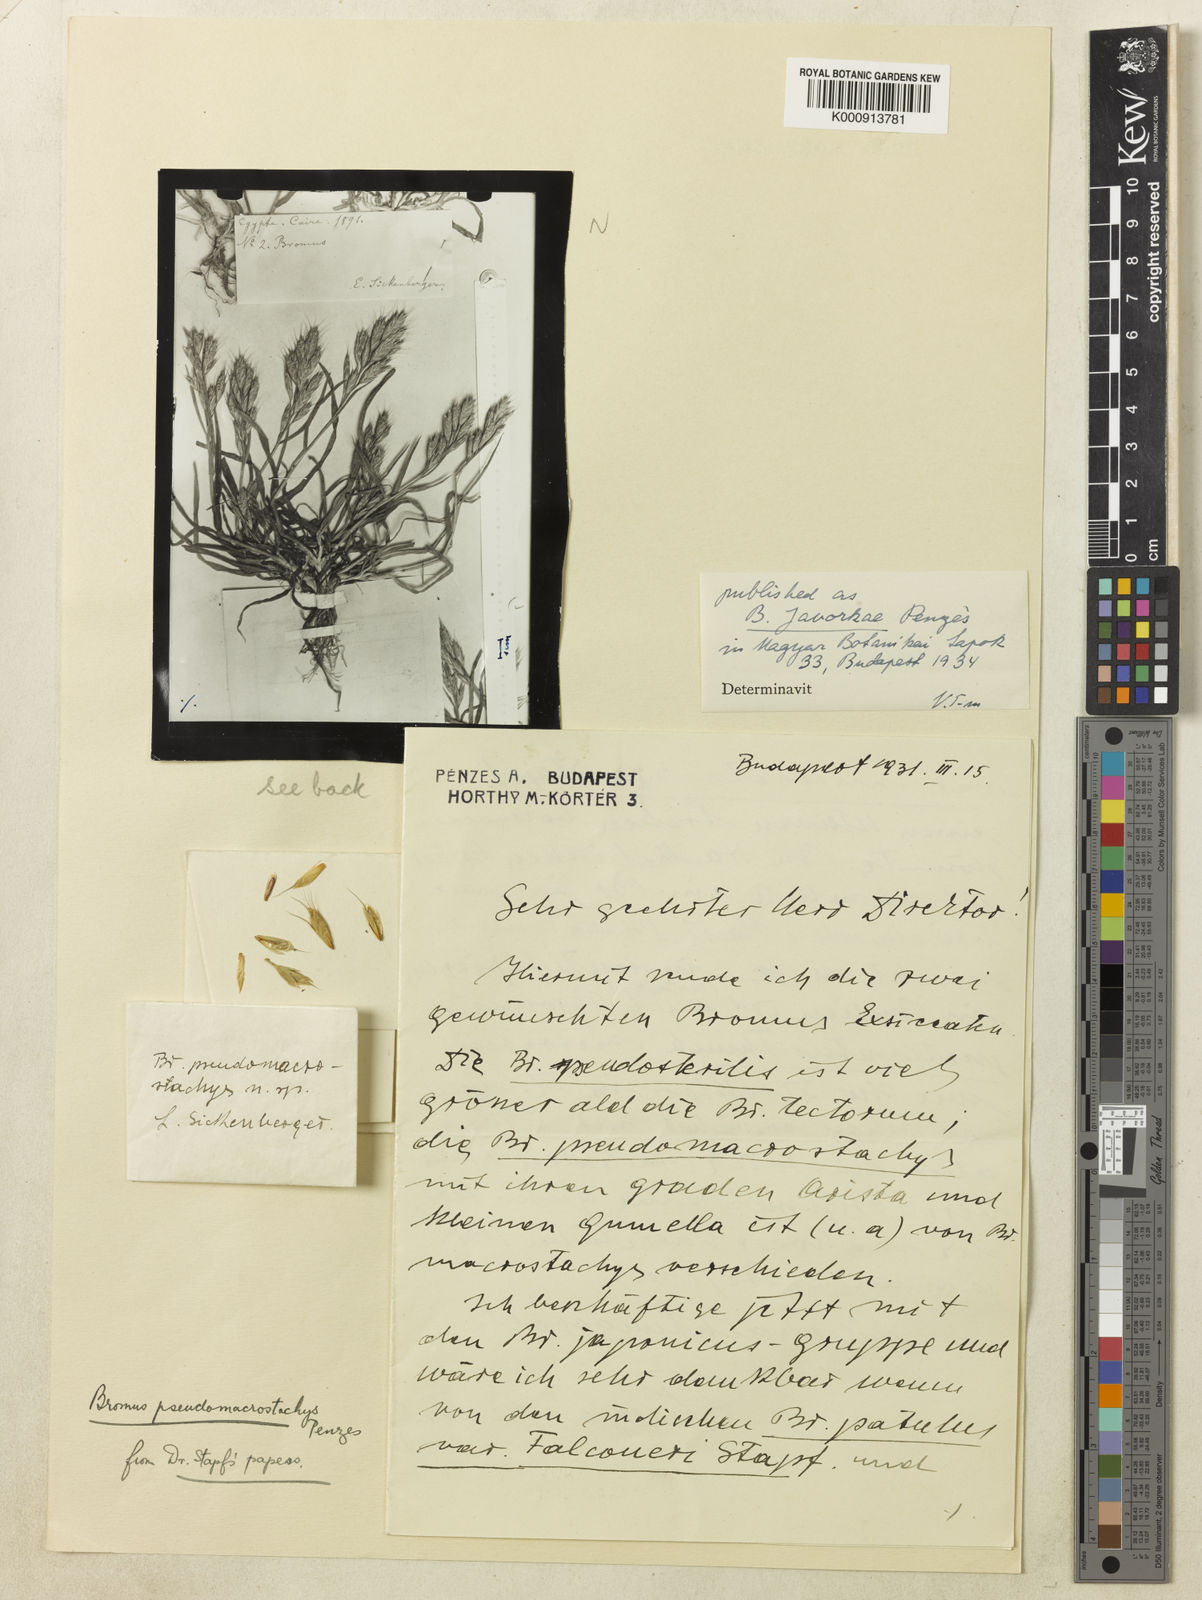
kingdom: Plantae
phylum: Tracheophyta
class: Liliopsida
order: Poales
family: Poaceae
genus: Bromus
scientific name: Bromus hordeaceus
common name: Soft brome
